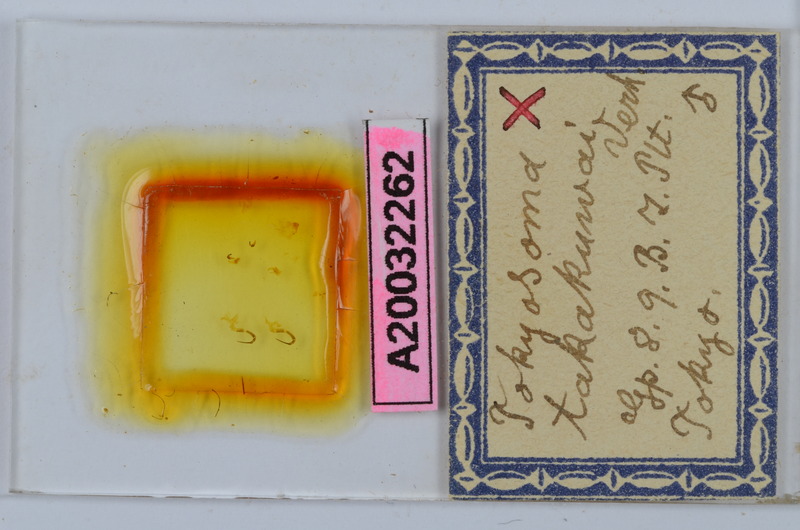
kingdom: Animalia
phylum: Arthropoda
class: Diplopoda
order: Chordeumatida
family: Diplomaragnidae
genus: Tokyosoma
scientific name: Tokyosoma takakuwai
